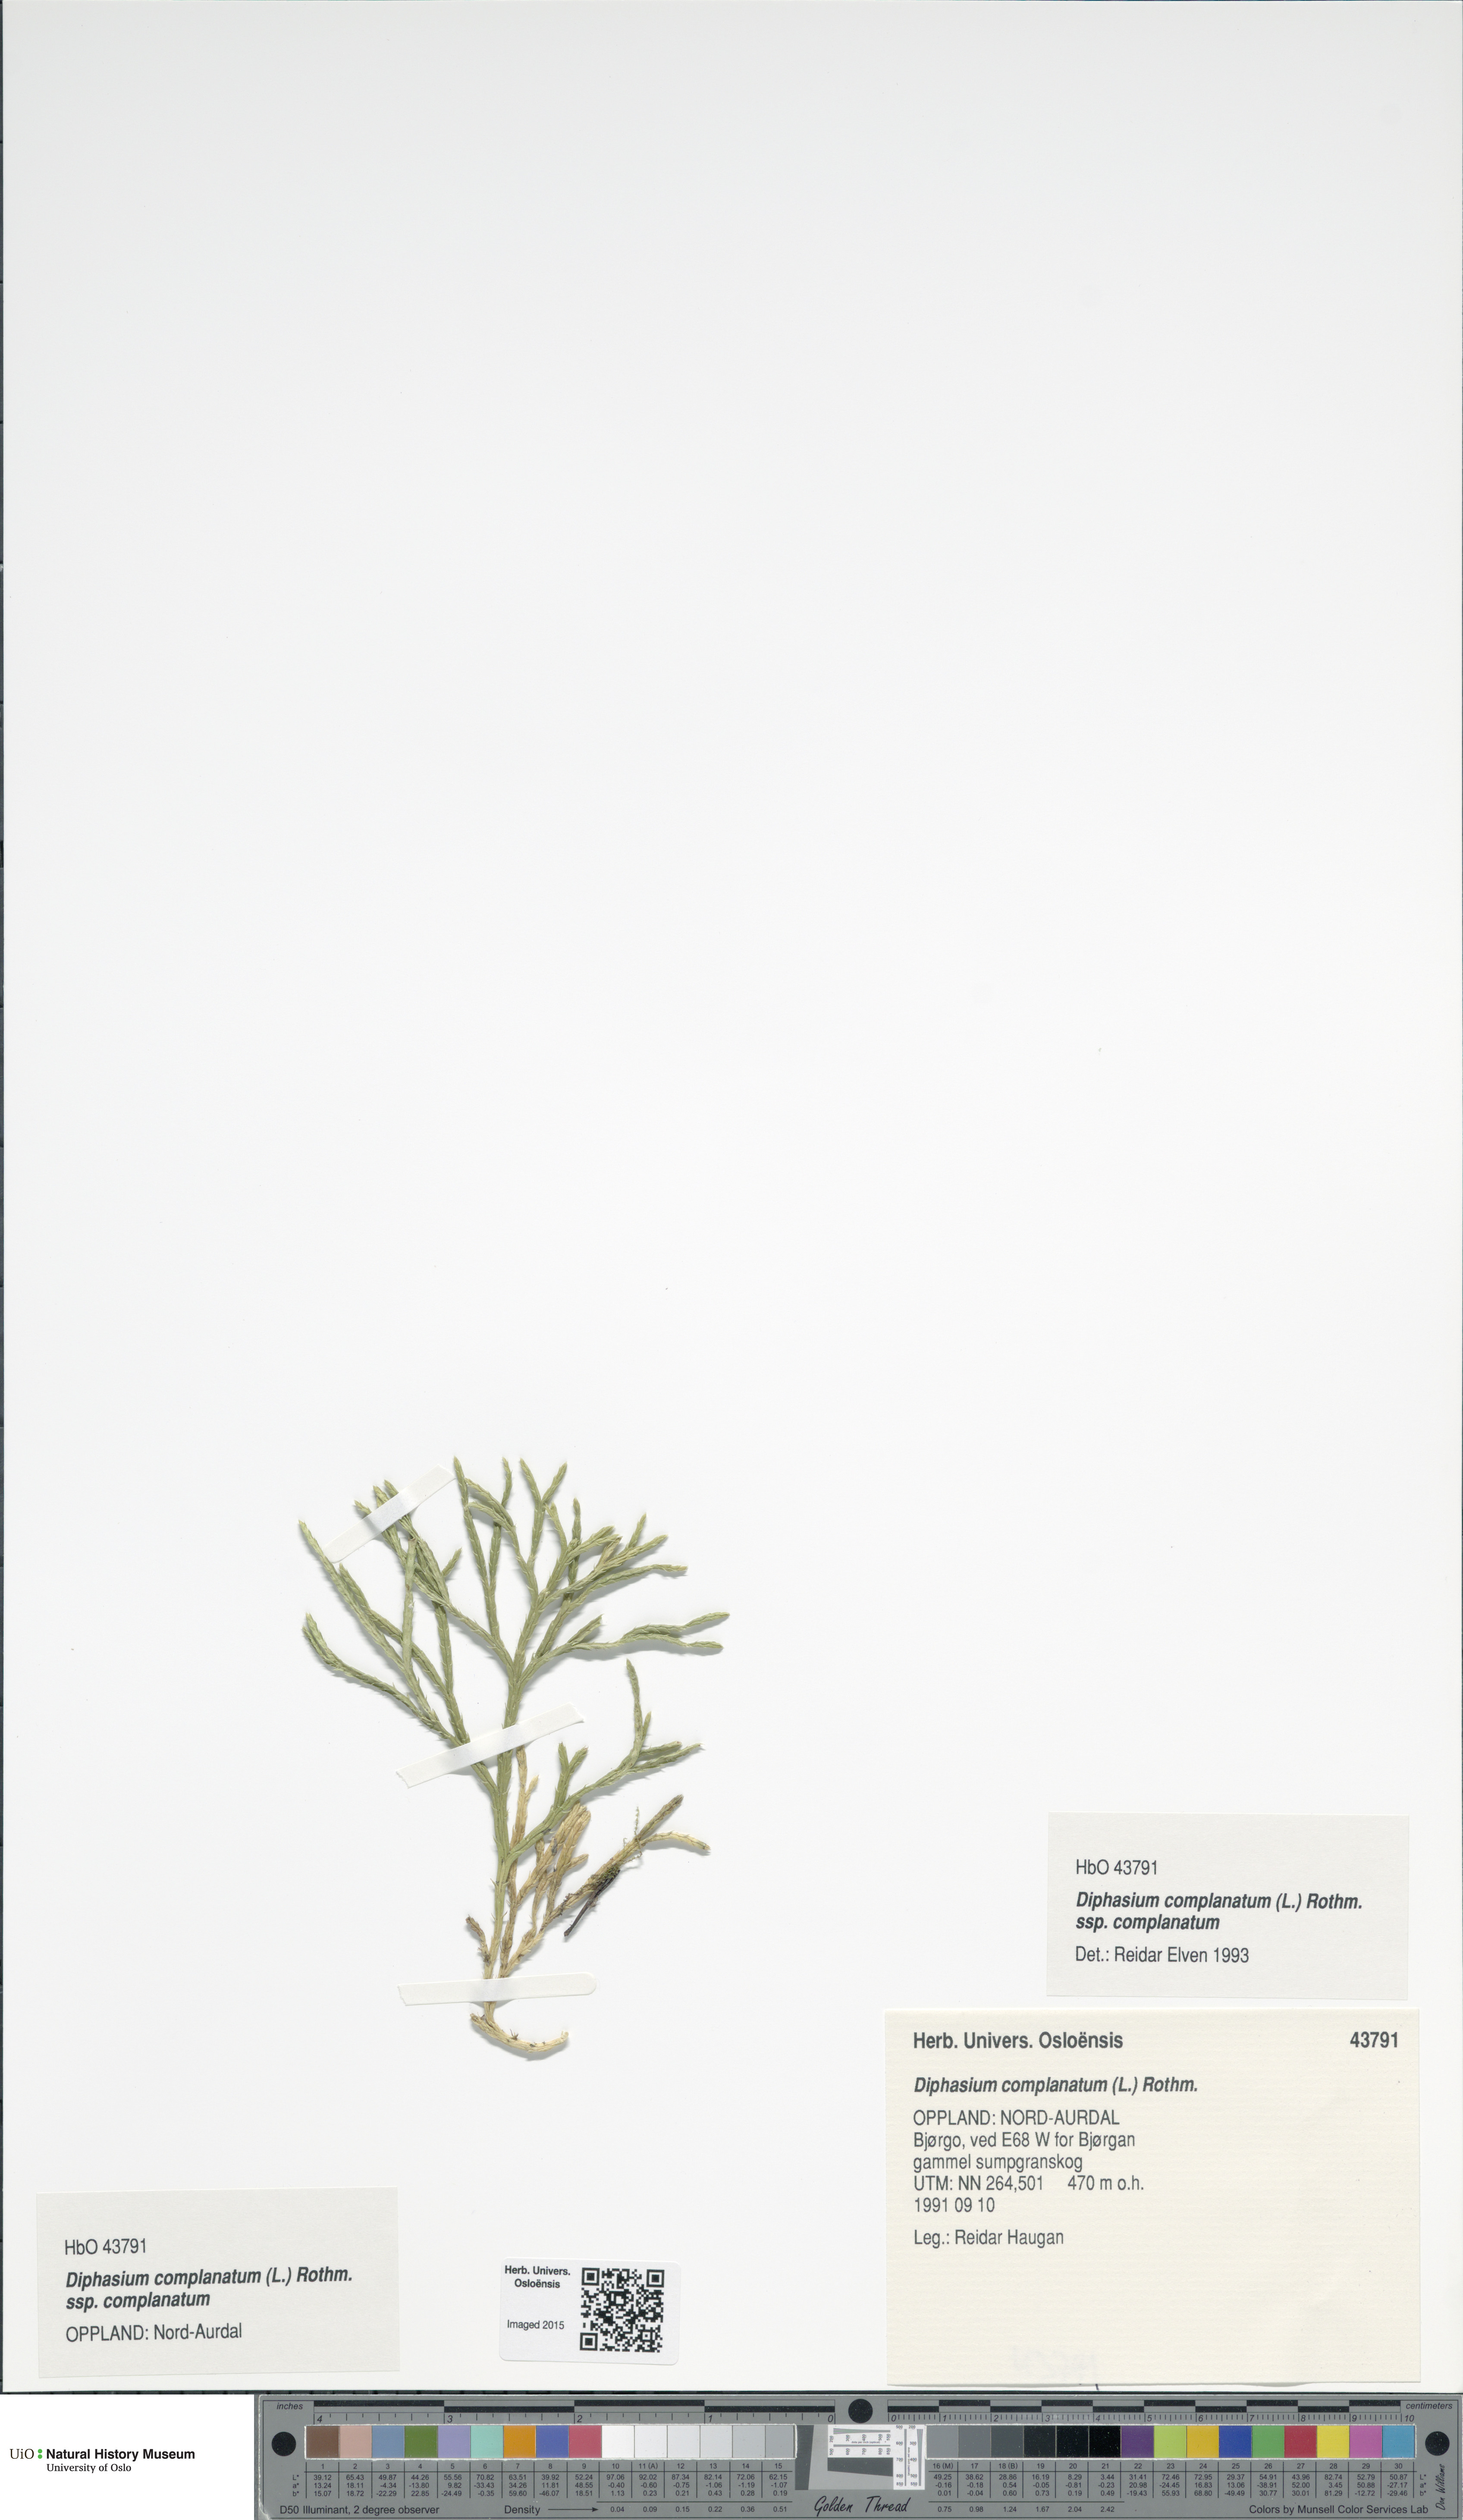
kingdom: Plantae
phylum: Tracheophyta
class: Lycopodiopsida
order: Lycopodiales
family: Lycopodiaceae
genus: Diphasiastrum
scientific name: Diphasiastrum complanatum
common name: Northern running-pine
